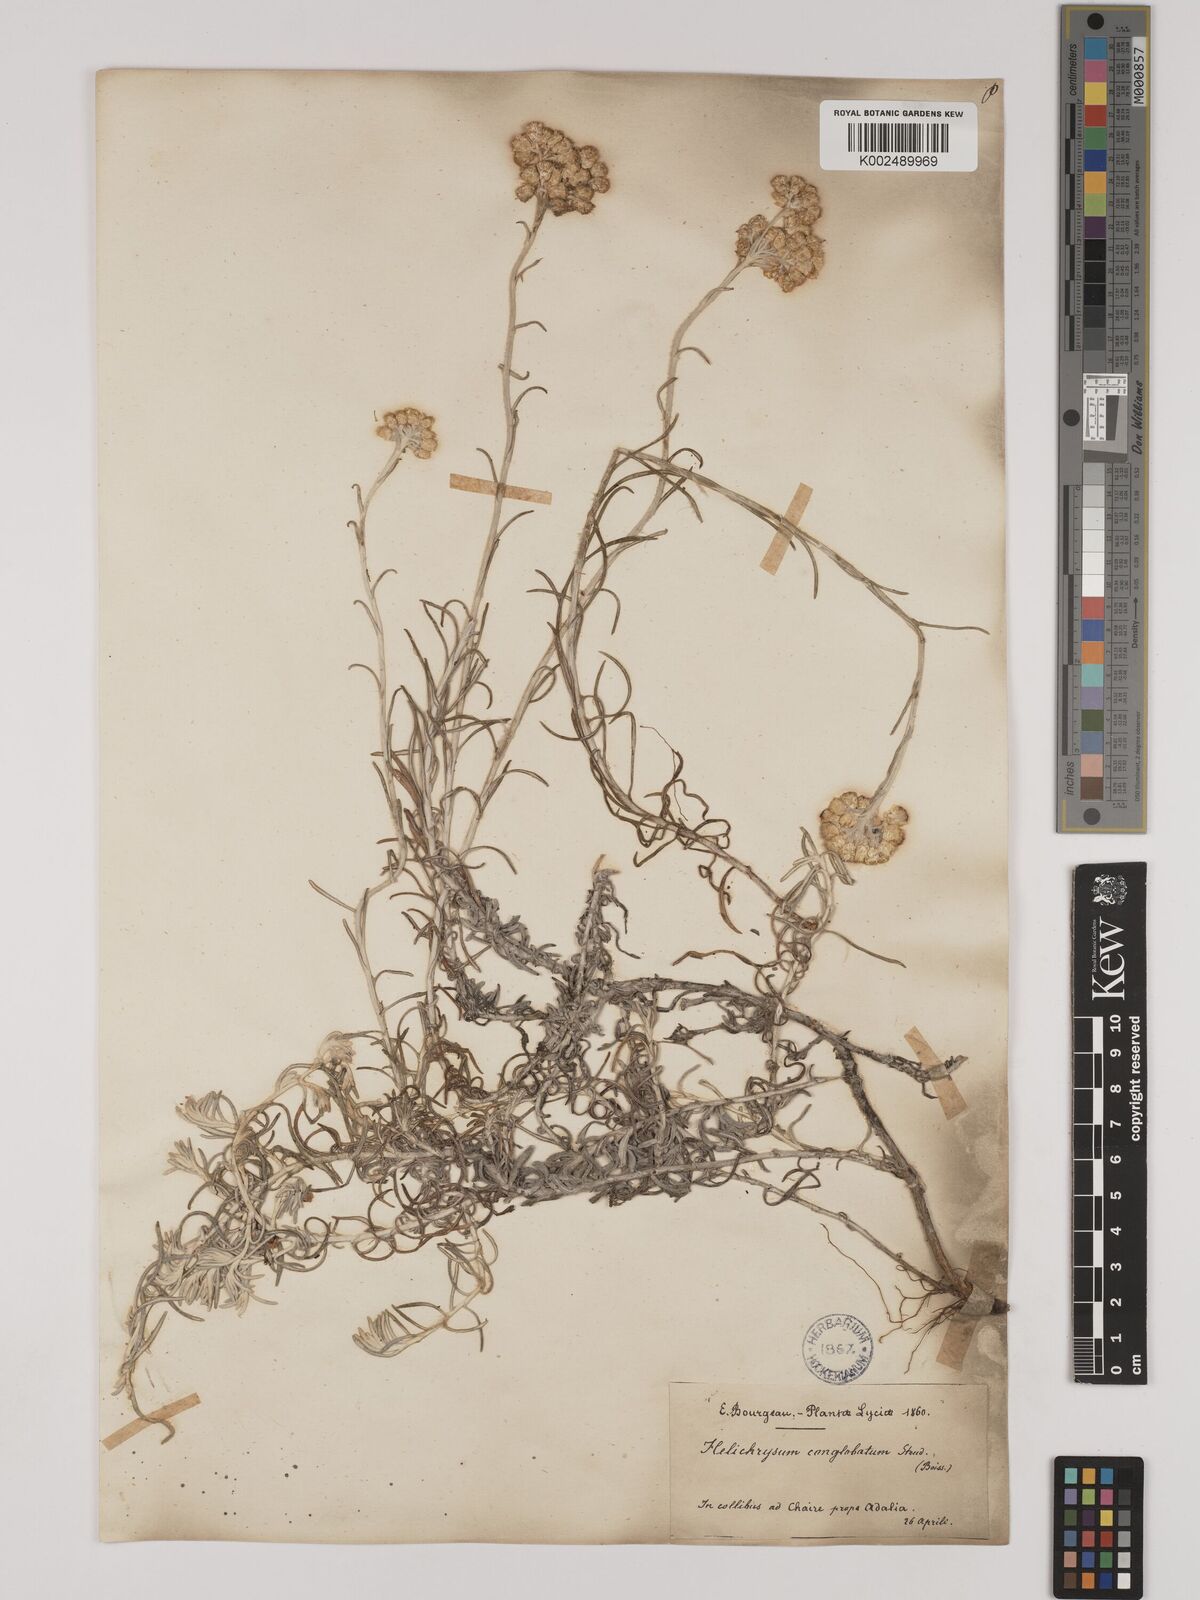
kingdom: Plantae
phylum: Tracheophyta
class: Magnoliopsida
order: Asterales
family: Asteraceae
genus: Helichrysum
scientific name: Helichrysum stoechas
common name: Goldilocks
